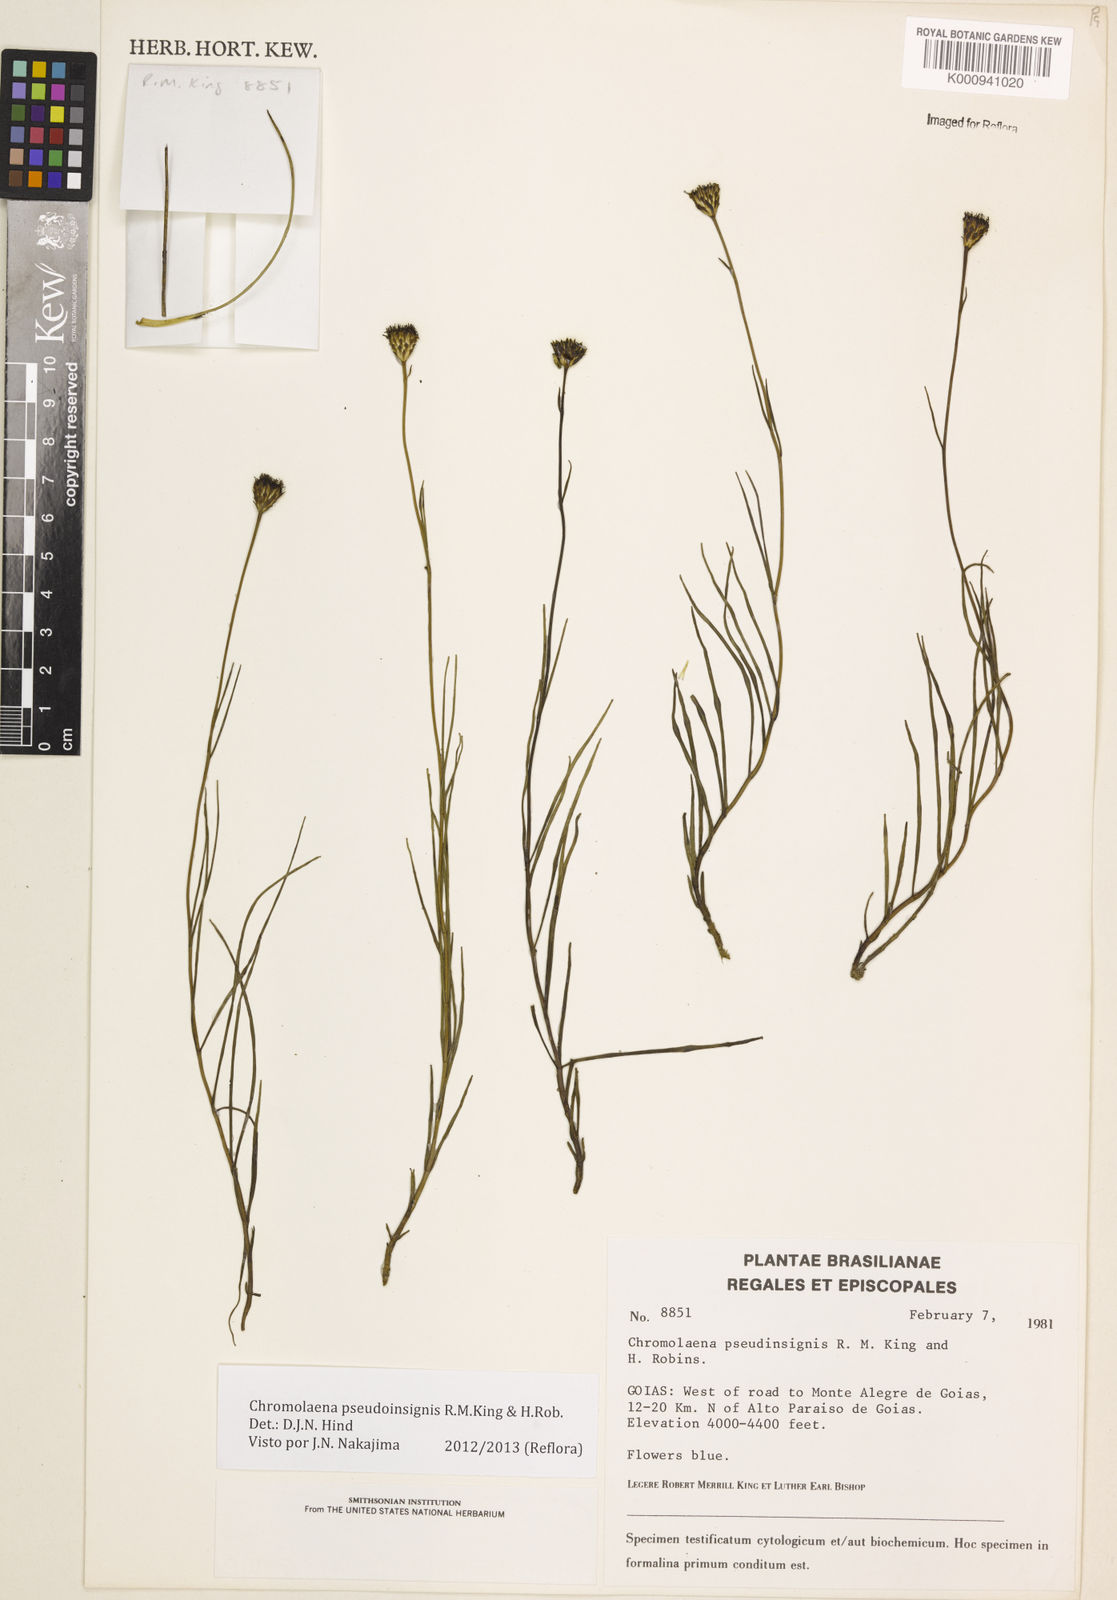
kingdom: Plantae
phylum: Tracheophyta
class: Magnoliopsida
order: Asterales
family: Asteraceae
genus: Chromolaena
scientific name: Chromolaena
